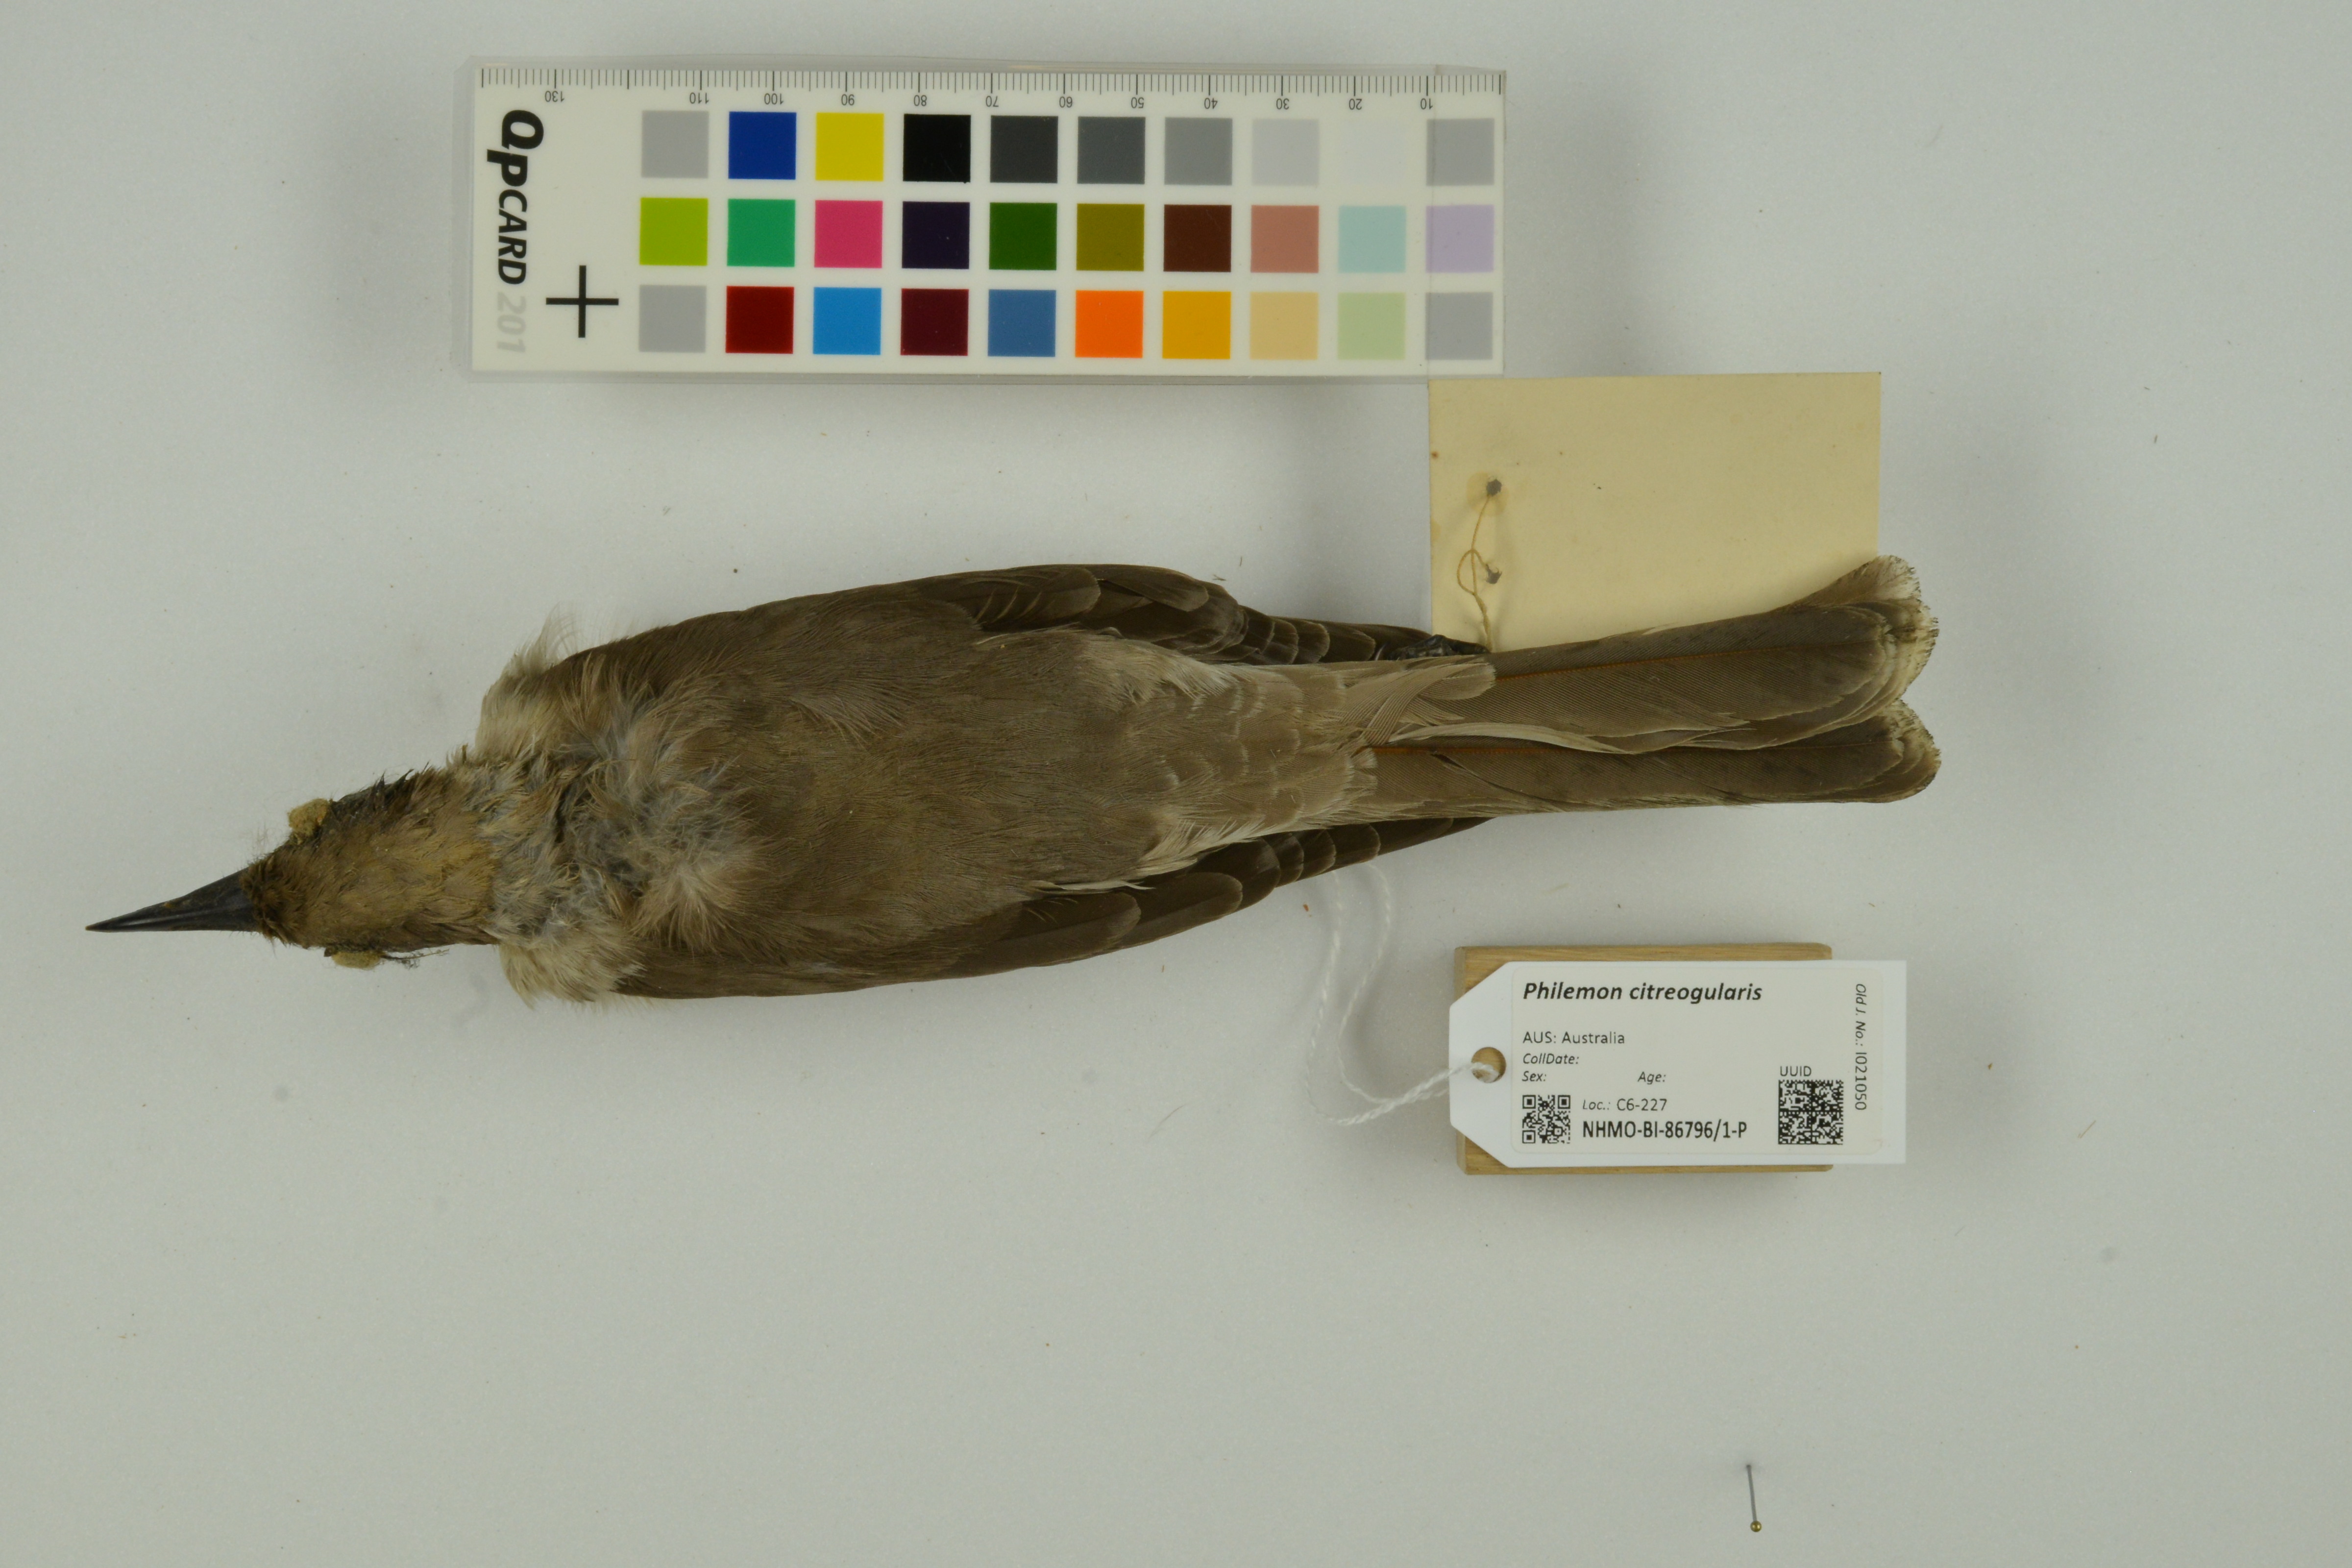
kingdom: Animalia
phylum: Chordata
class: Aves
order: Passeriformes
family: Meliphagidae
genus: Philemon
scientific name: Philemon citreogularis
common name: Little friarbird
